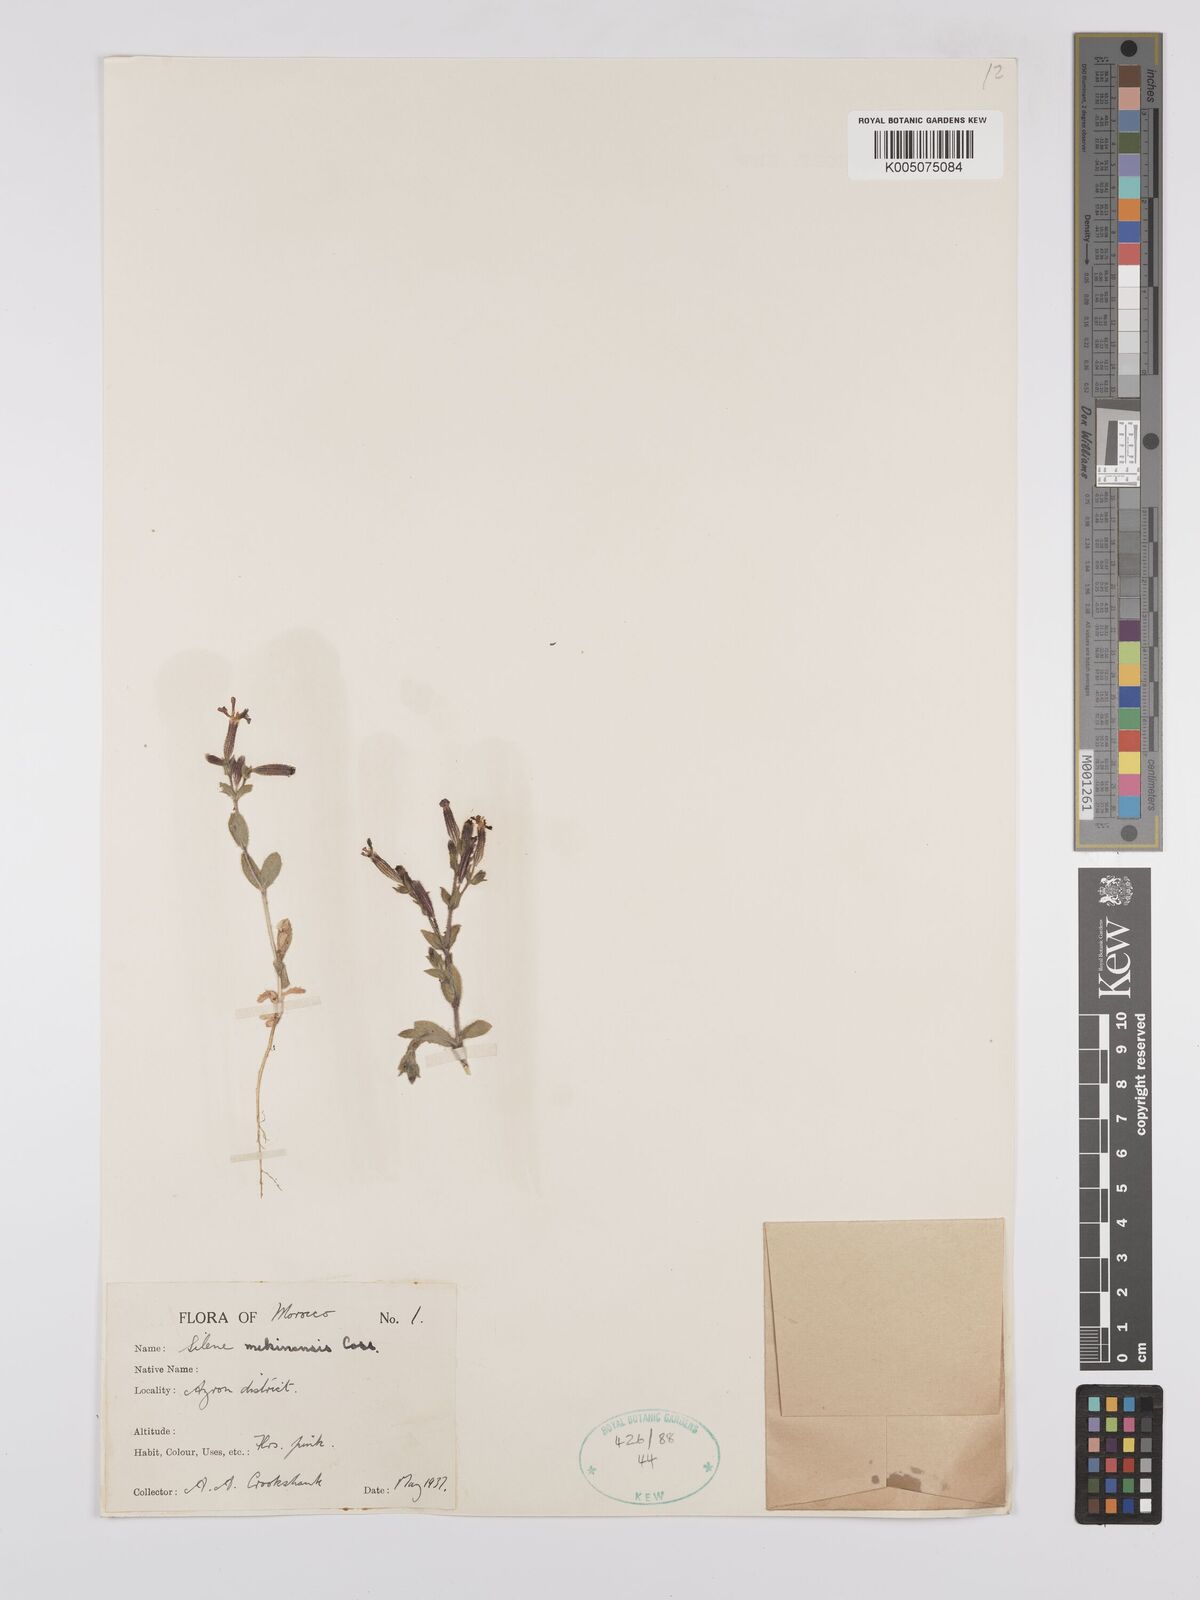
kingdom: Plantae
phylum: Tracheophyta
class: Magnoliopsida
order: Caryophyllales
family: Caryophyllaceae
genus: Silene
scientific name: Silene mekinensis
